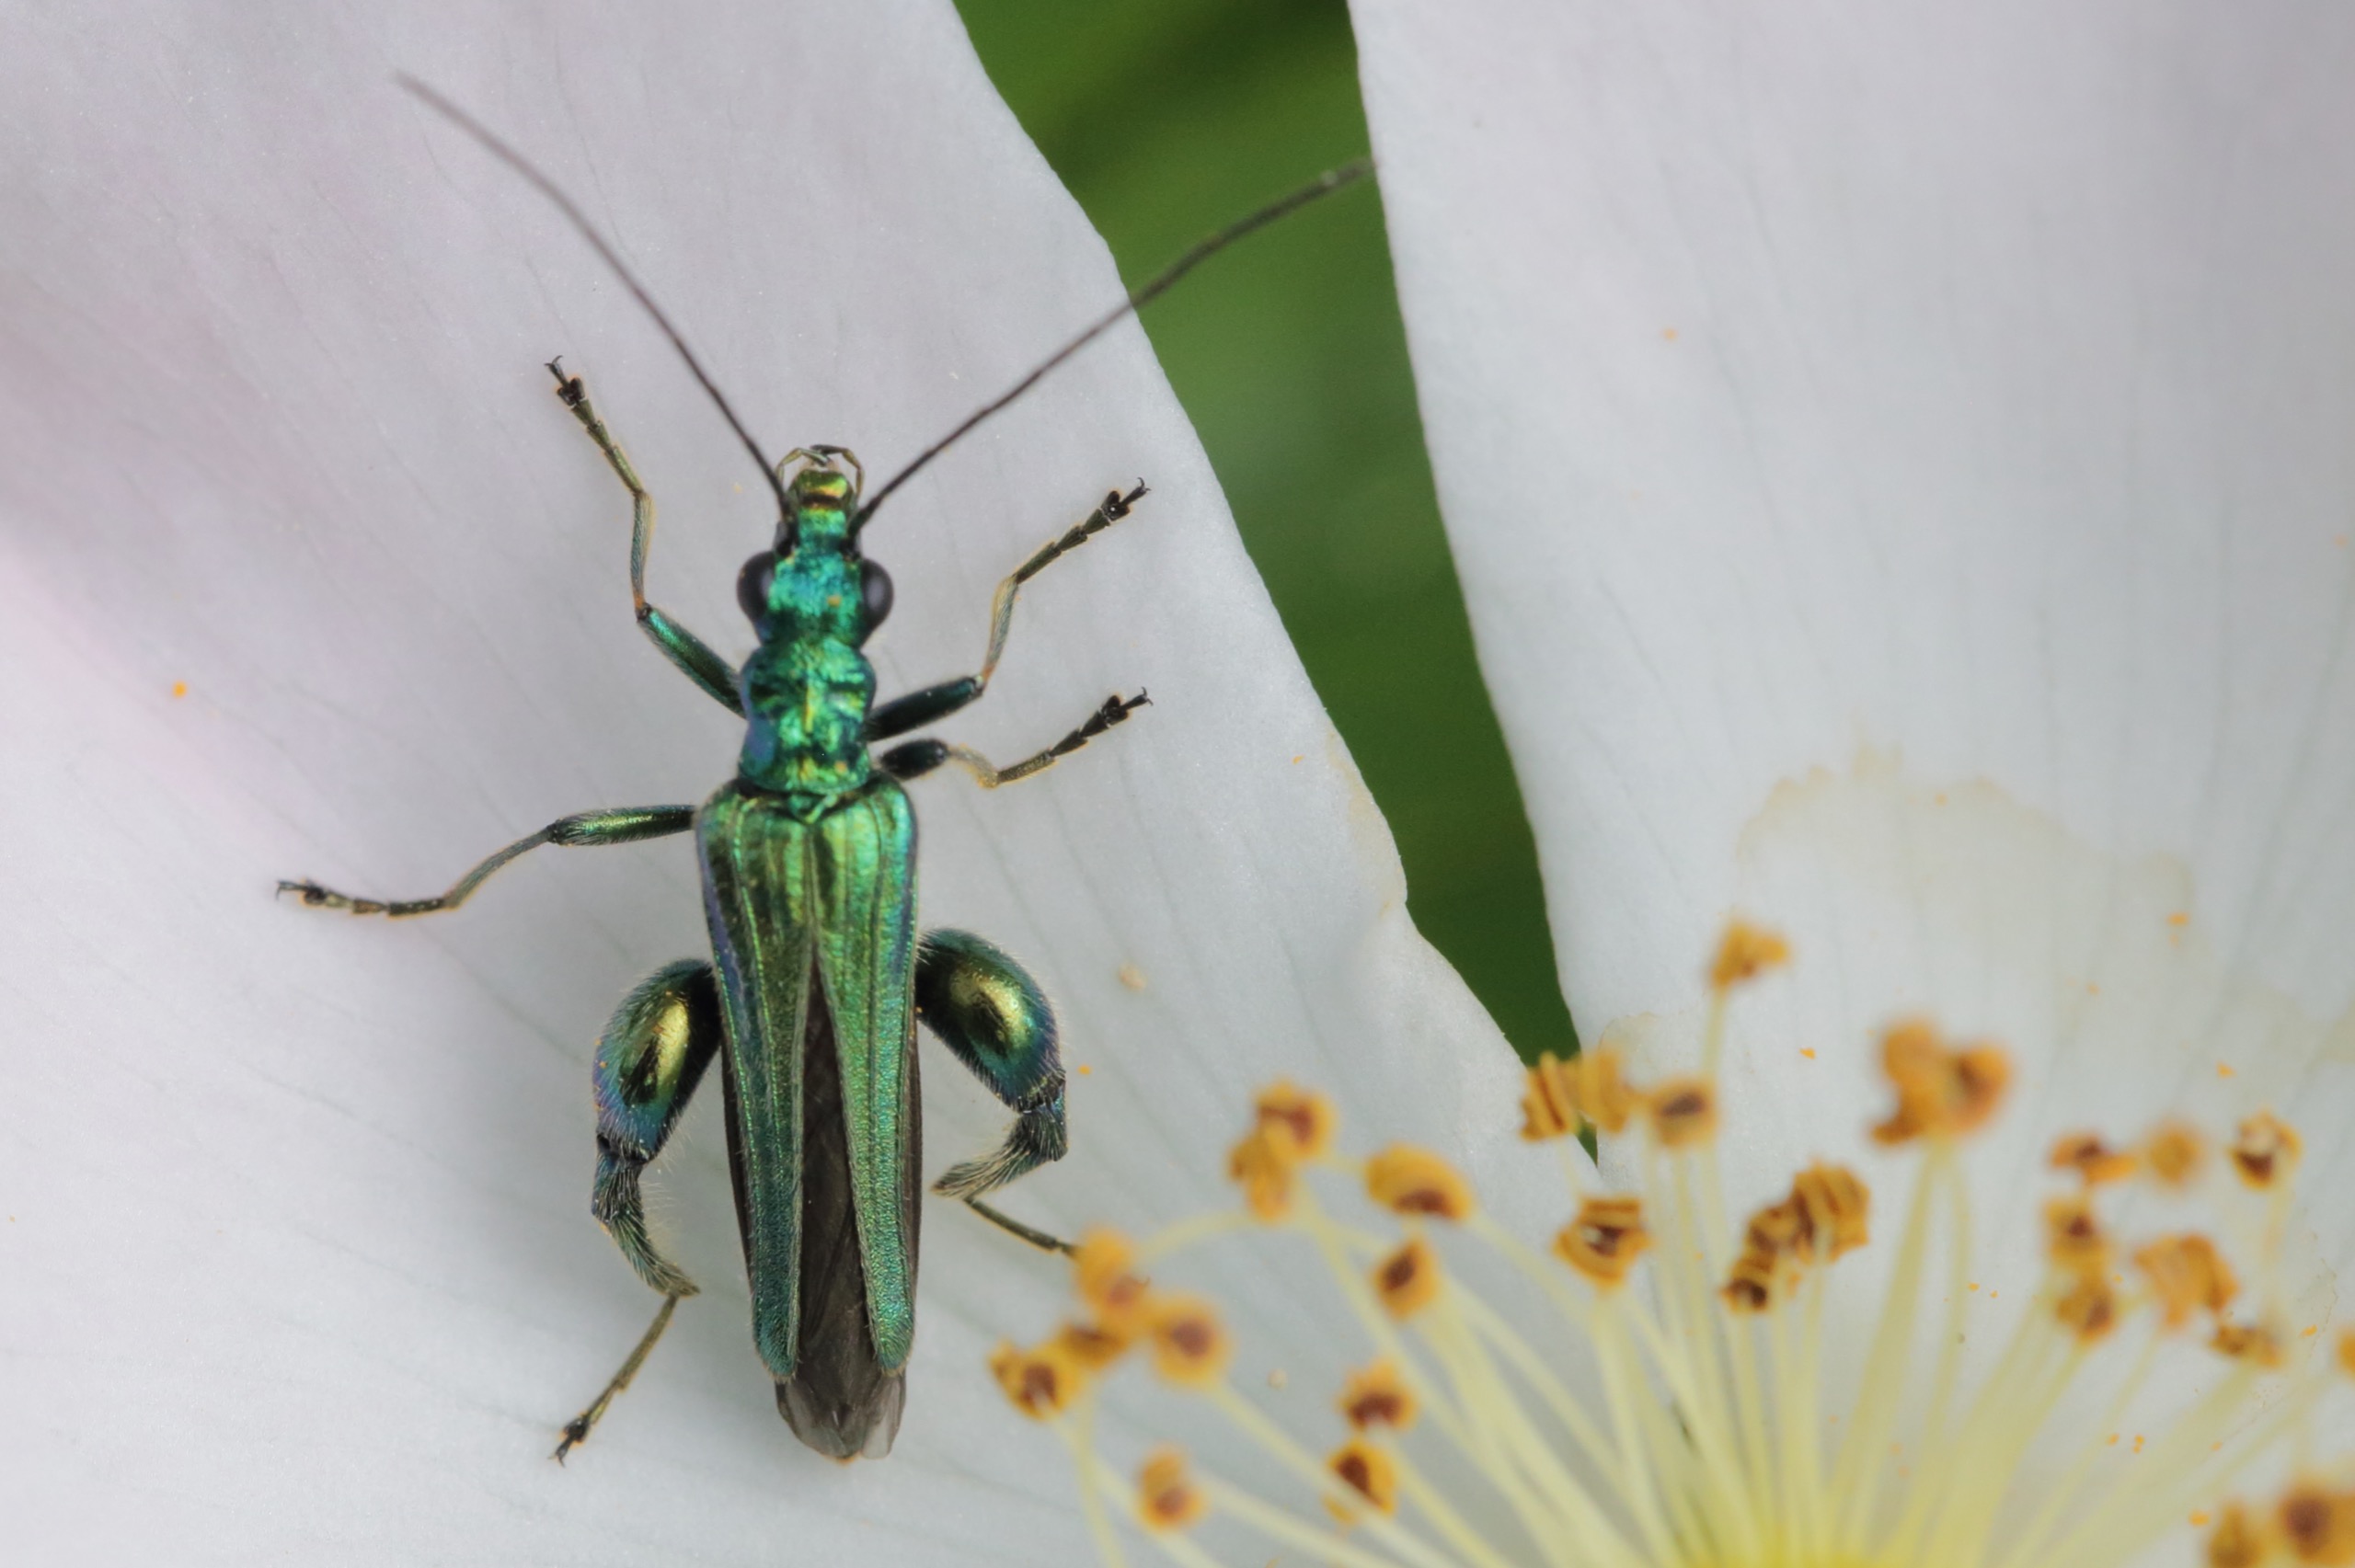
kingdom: Animalia
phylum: Arthropoda
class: Insecta
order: Coleoptera
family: Oedemeridae
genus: Oedemera
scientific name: Oedemera nobilis
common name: Tyklårssolbille
